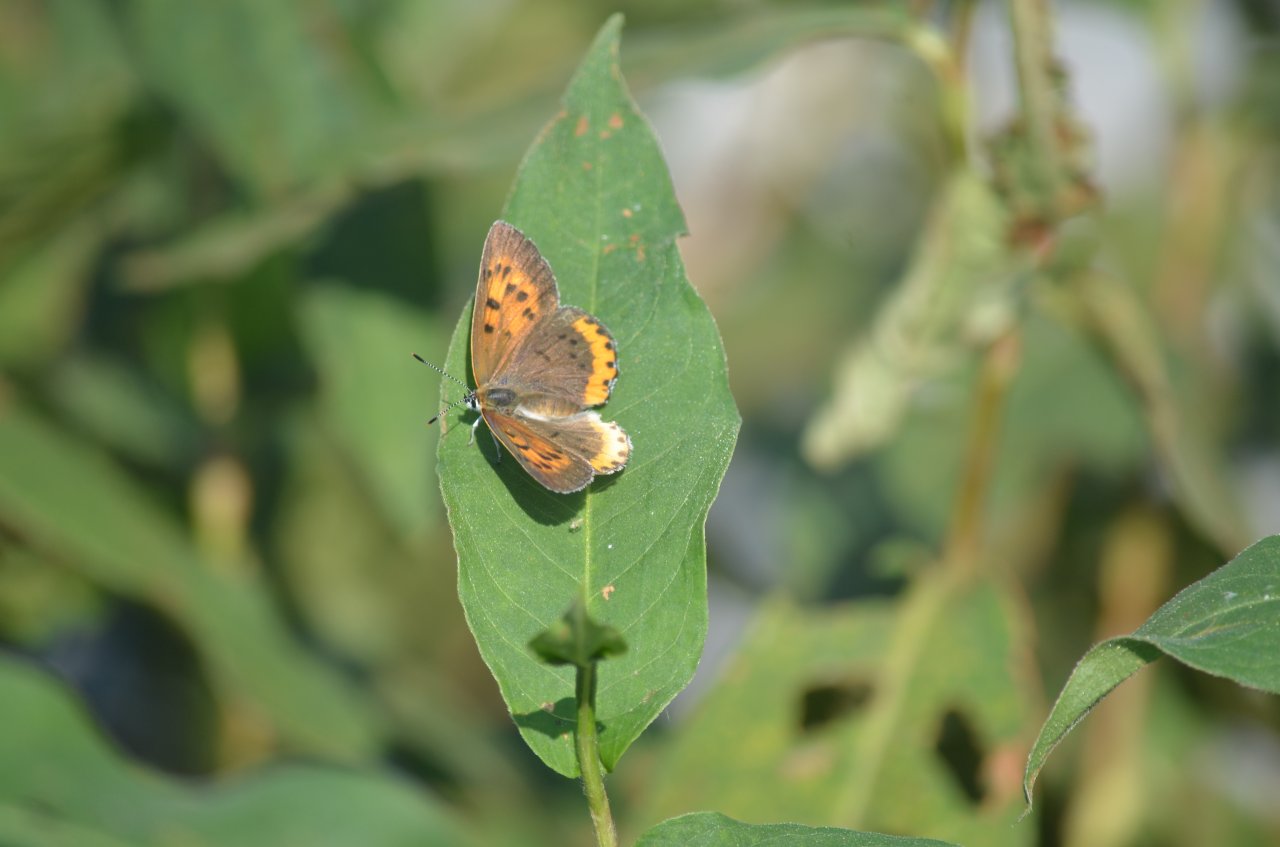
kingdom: Animalia
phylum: Arthropoda
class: Insecta
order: Lepidoptera
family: Sesiidae
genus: Sesia
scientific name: Sesia Lycaena hyllus
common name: Bronze Copper
